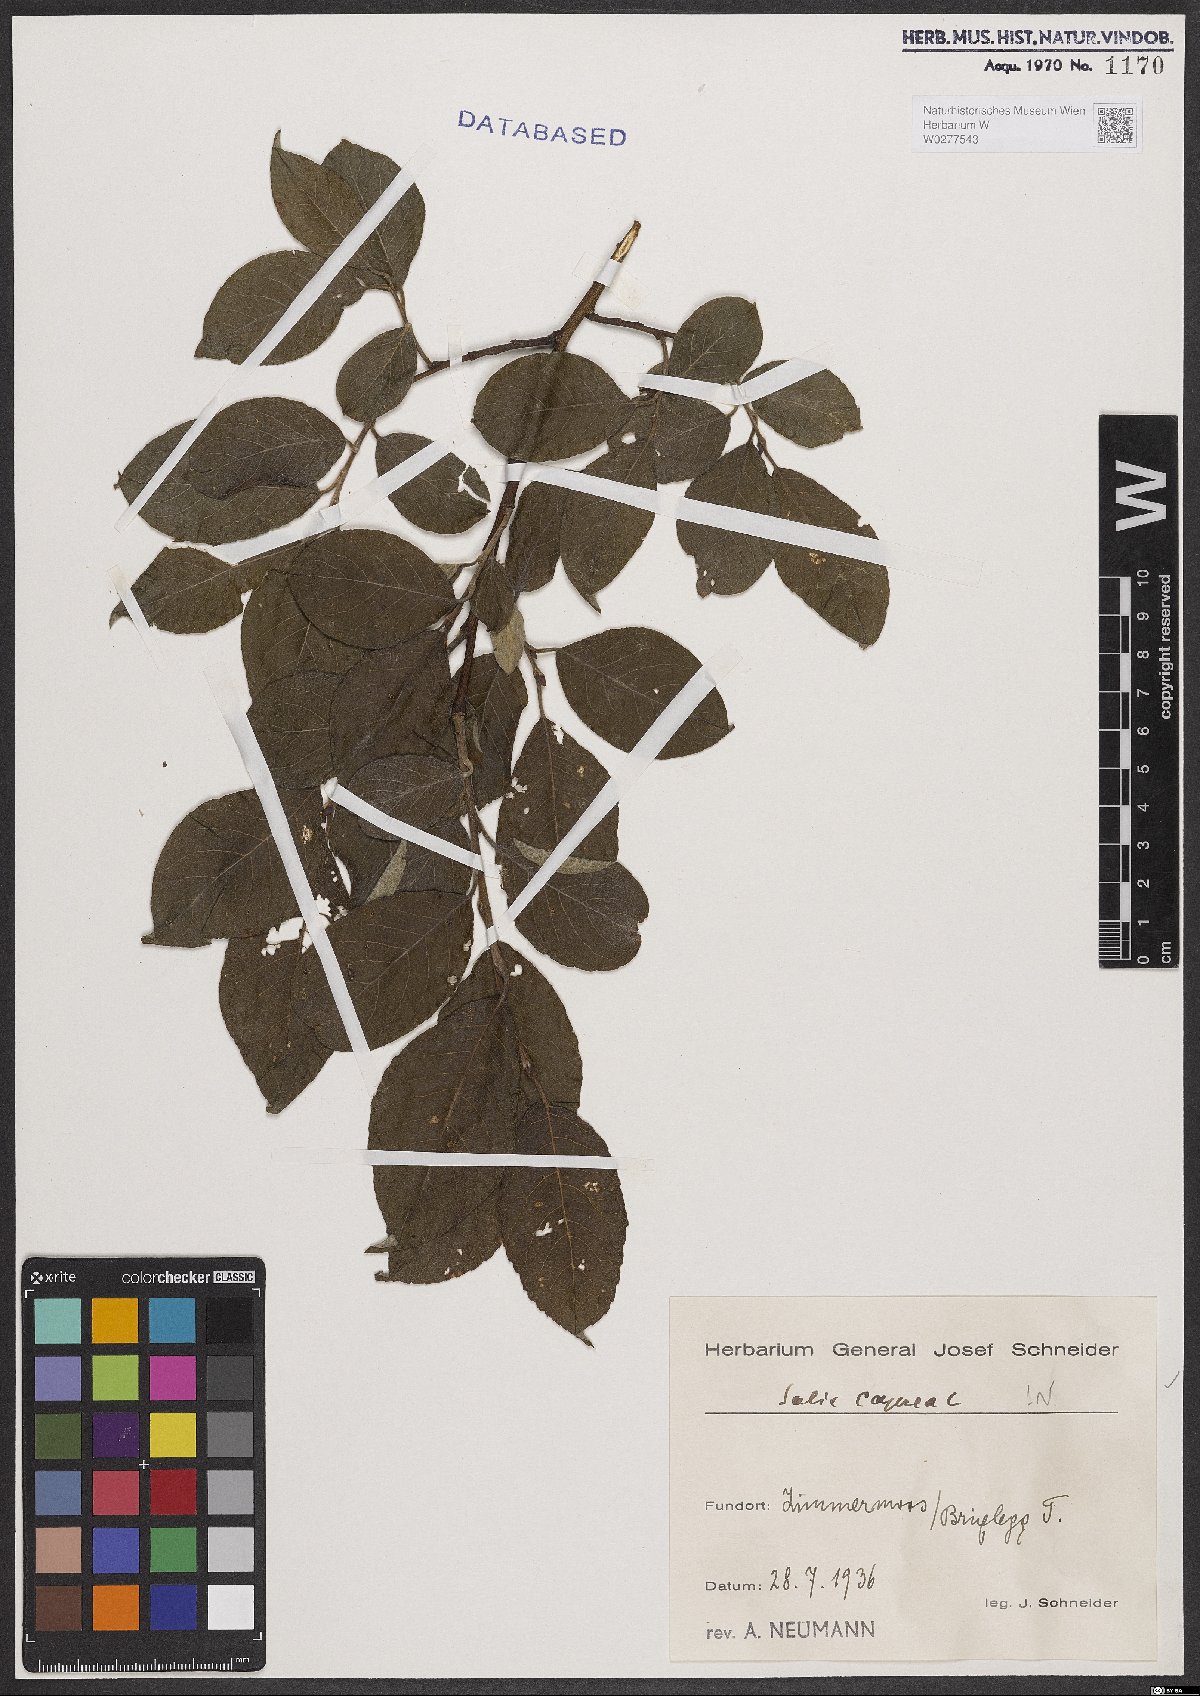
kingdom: Plantae
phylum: Tracheophyta
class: Magnoliopsida
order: Malpighiales
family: Salicaceae
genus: Salix
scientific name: Salix caprea
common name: Goat willow
